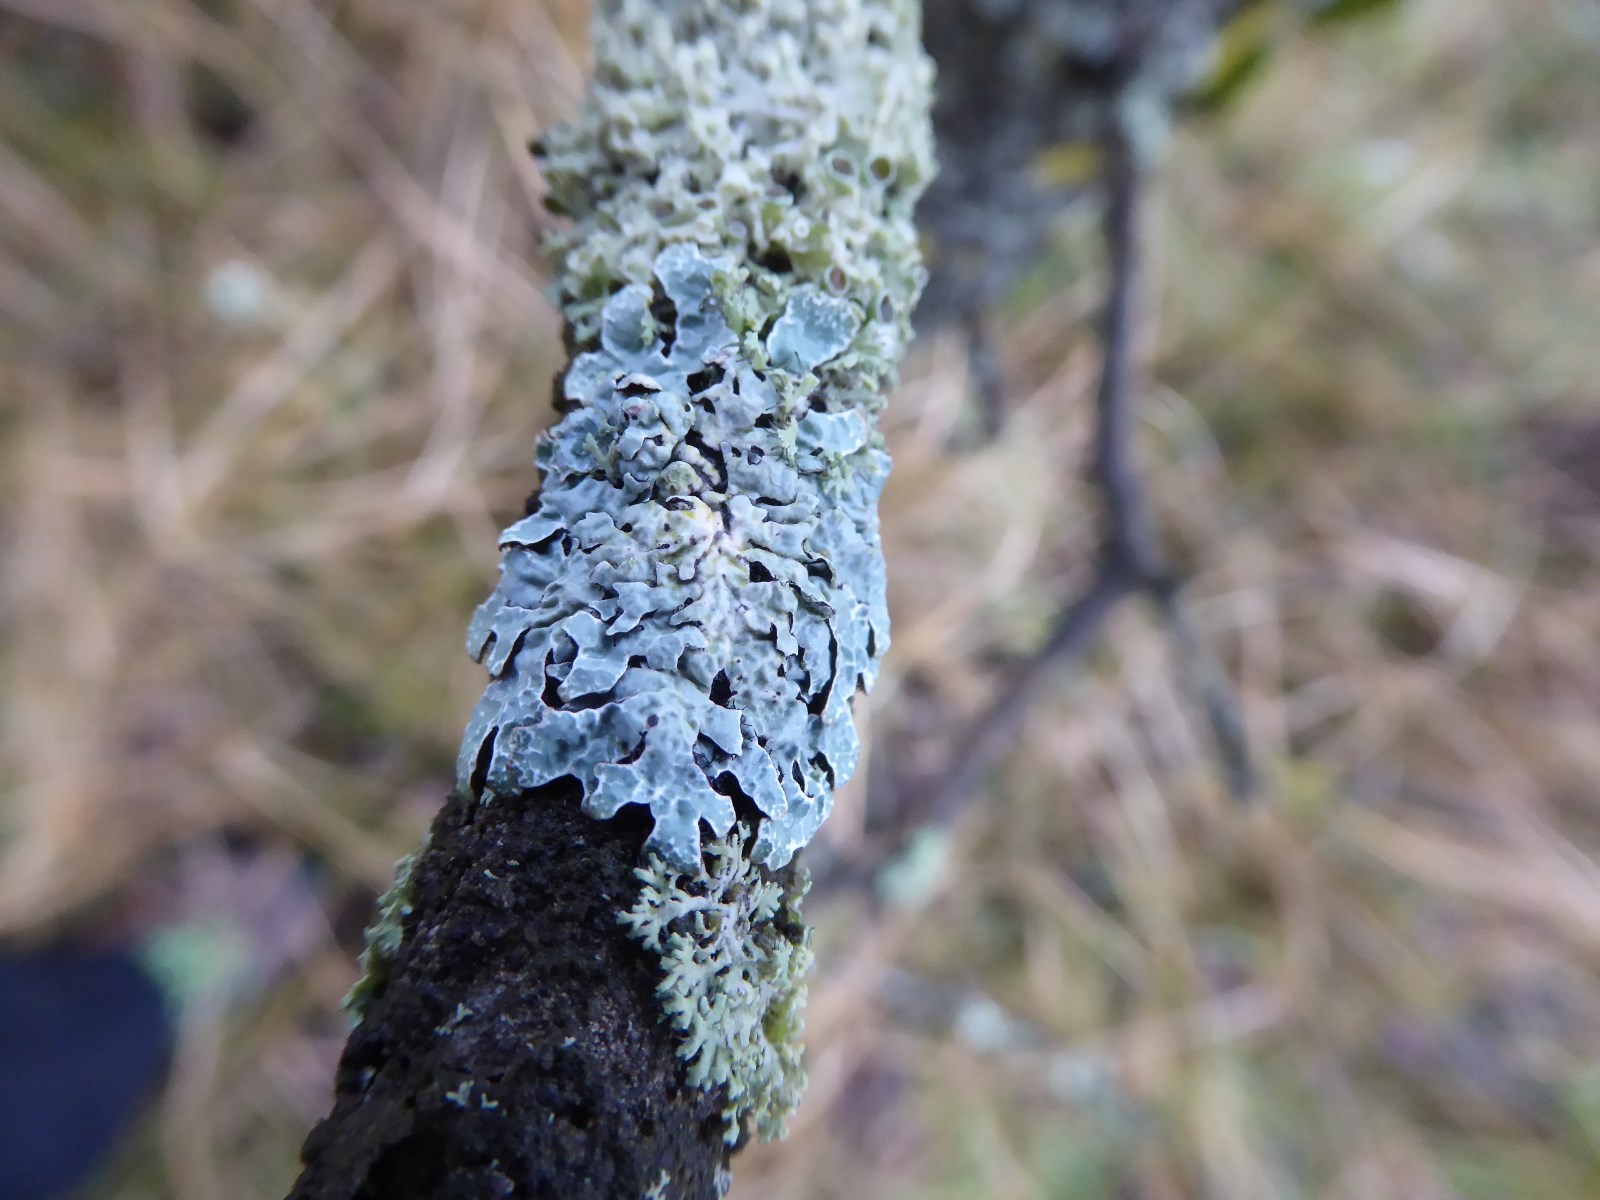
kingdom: Fungi
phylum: Ascomycota
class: Lecanoromycetes
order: Lecanorales
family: Parmeliaceae
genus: Parmelia
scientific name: Parmelia sulcata
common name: rynket skållav
